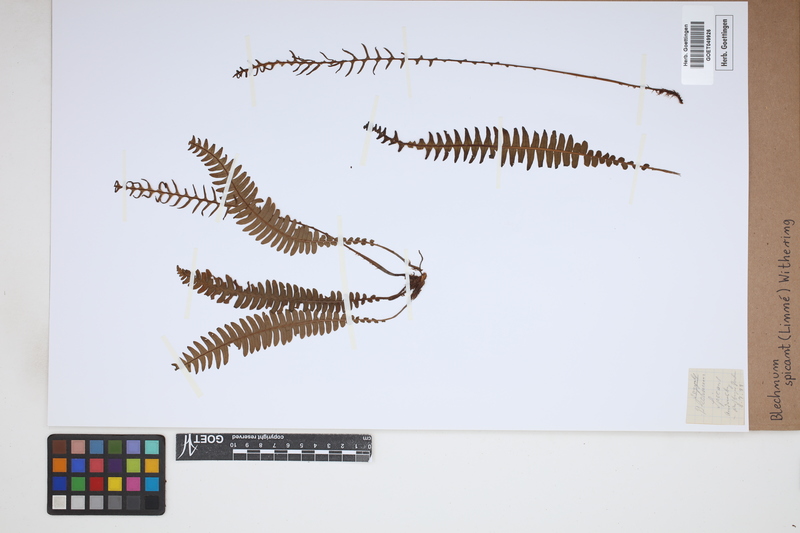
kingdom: Plantae
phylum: Tracheophyta
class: Polypodiopsida
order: Polypodiales
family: Blechnaceae
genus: Struthiopteris
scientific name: Struthiopteris spicant
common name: Deer fern
